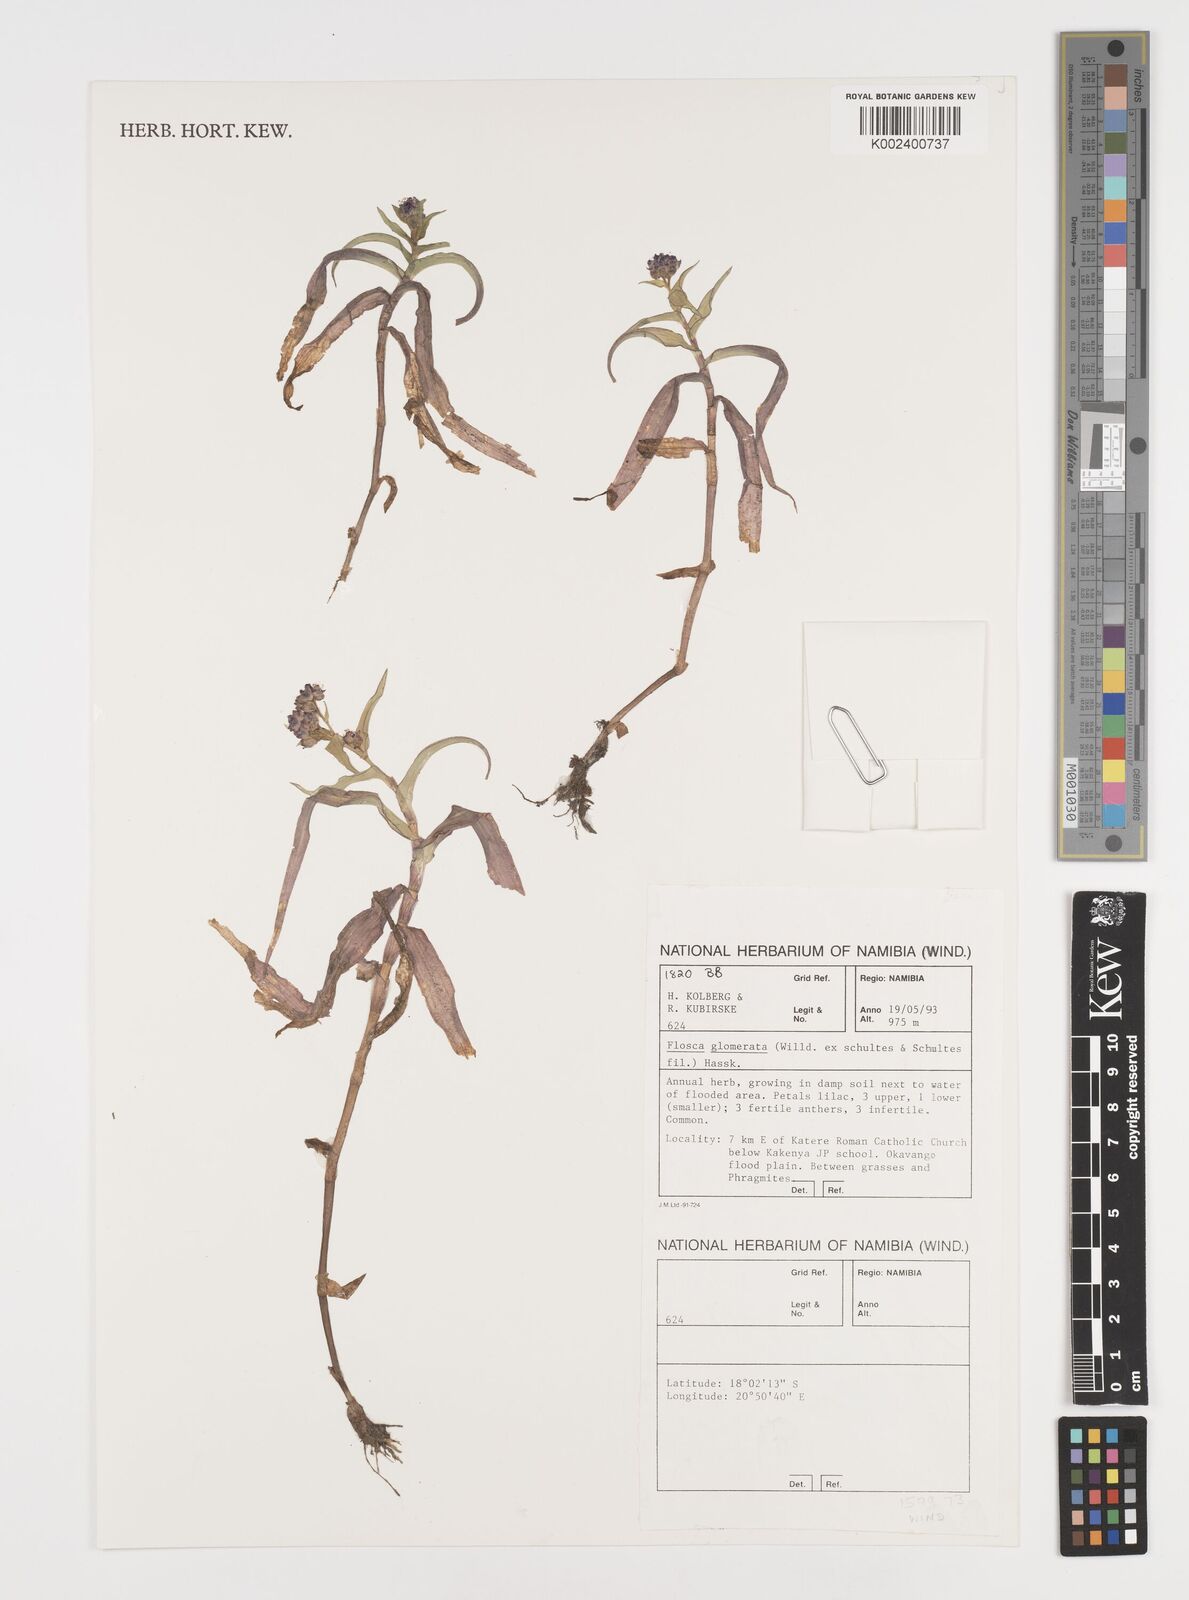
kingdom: Plantae
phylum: Tracheophyta
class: Liliopsida
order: Commelinales
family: Commelinaceae
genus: Floscopa
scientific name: Floscopa glomerata
